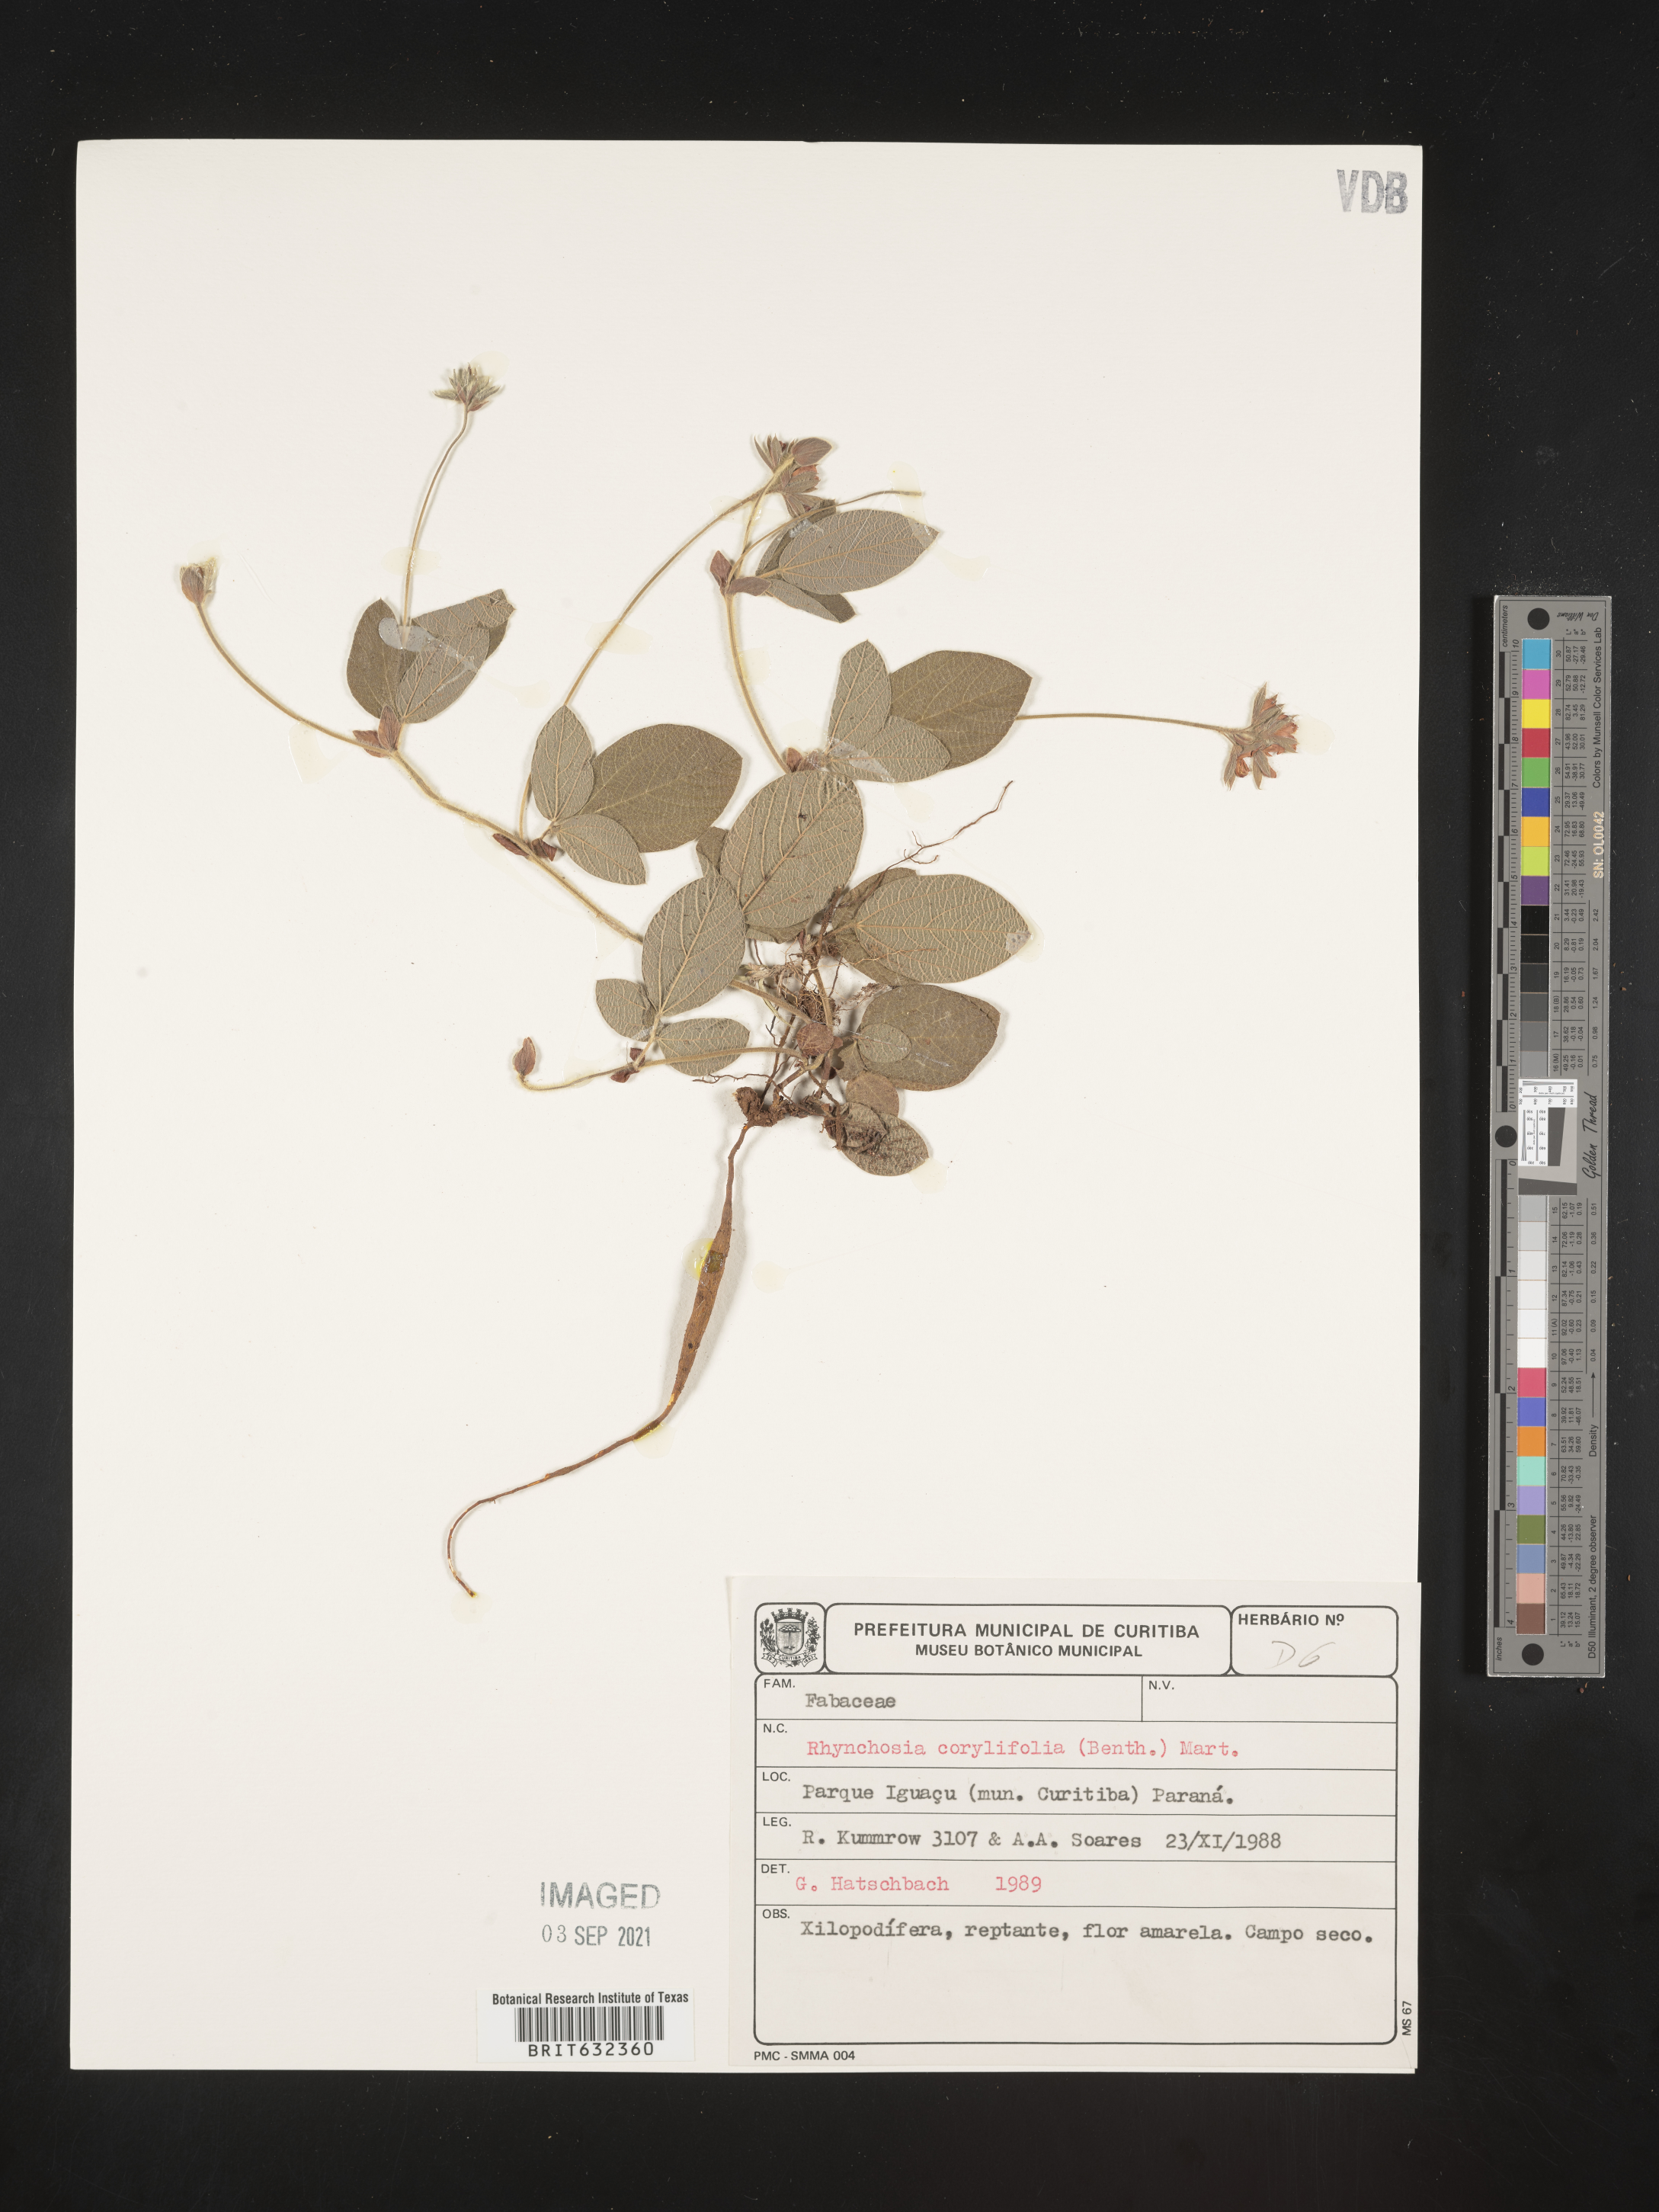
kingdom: Plantae
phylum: Tracheophyta
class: Magnoliopsida
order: Fabales
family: Fabaceae
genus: Rhynchosia
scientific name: Rhynchosia
